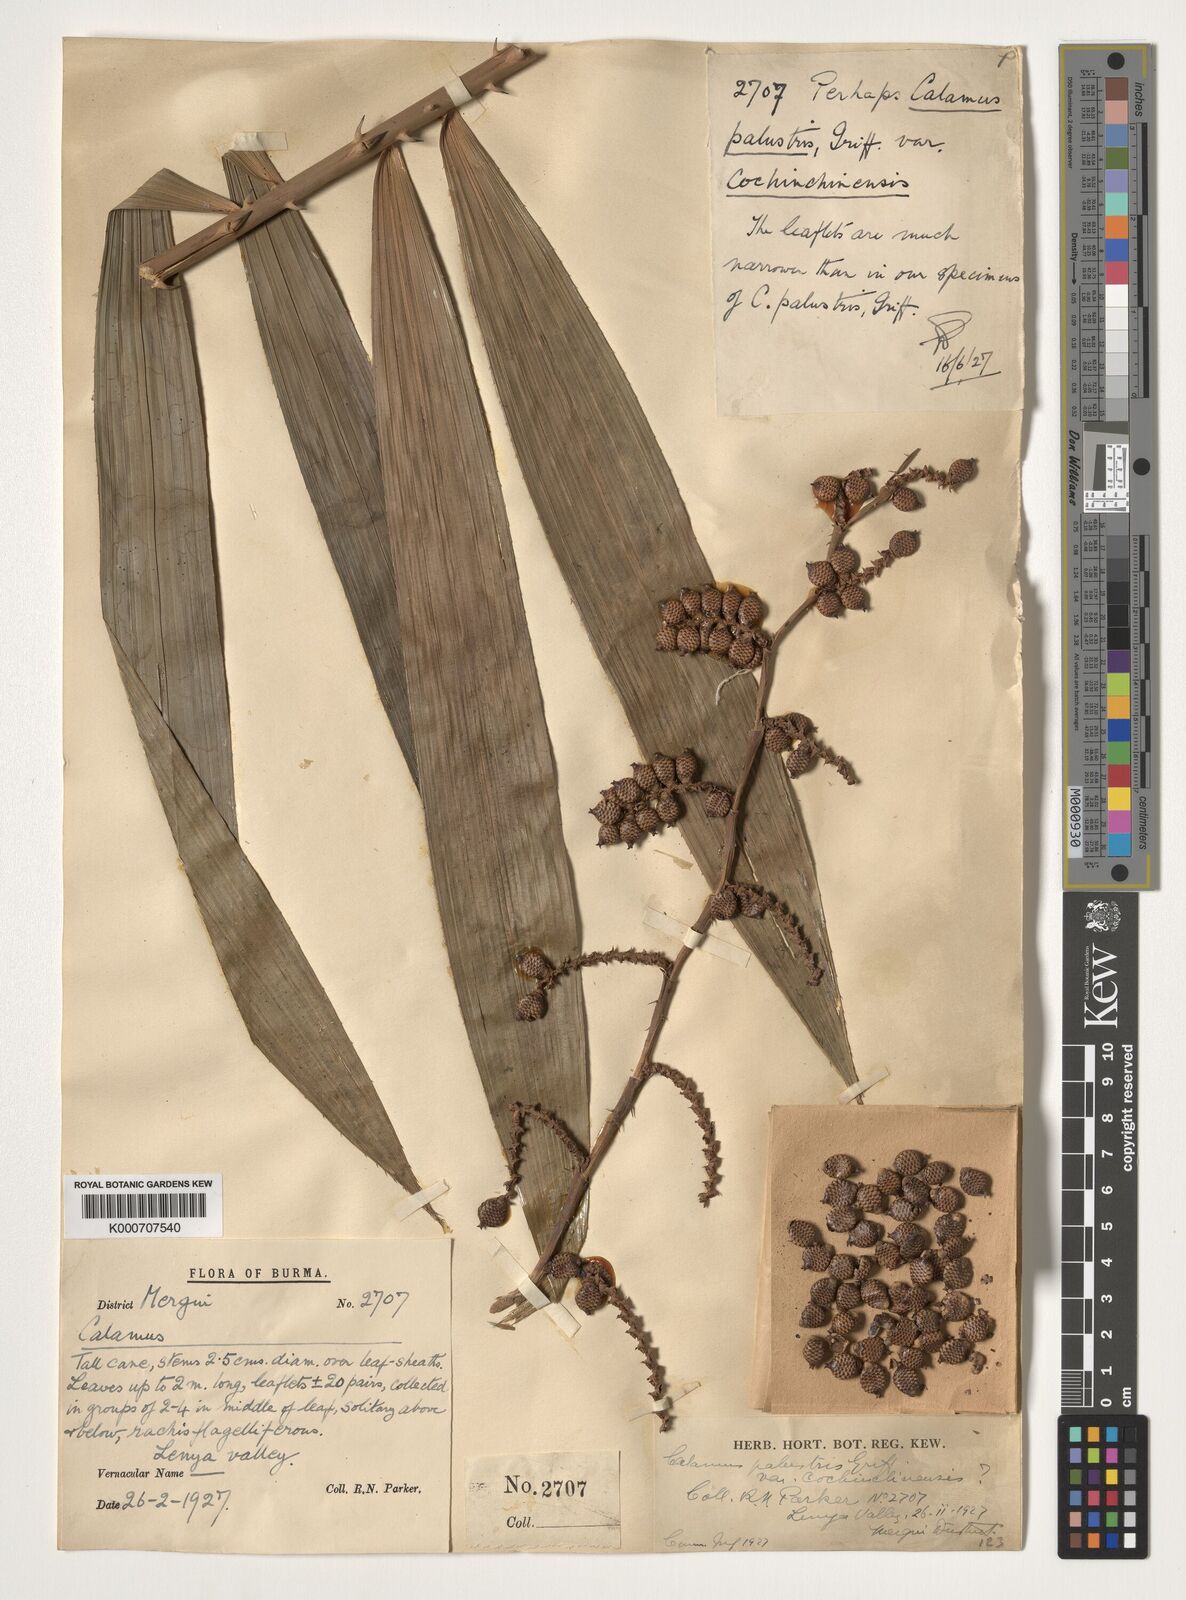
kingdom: Plantae
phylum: Tracheophyta
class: Liliopsida
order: Arecales
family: Arecaceae
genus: Calamus
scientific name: Calamus latifolius
